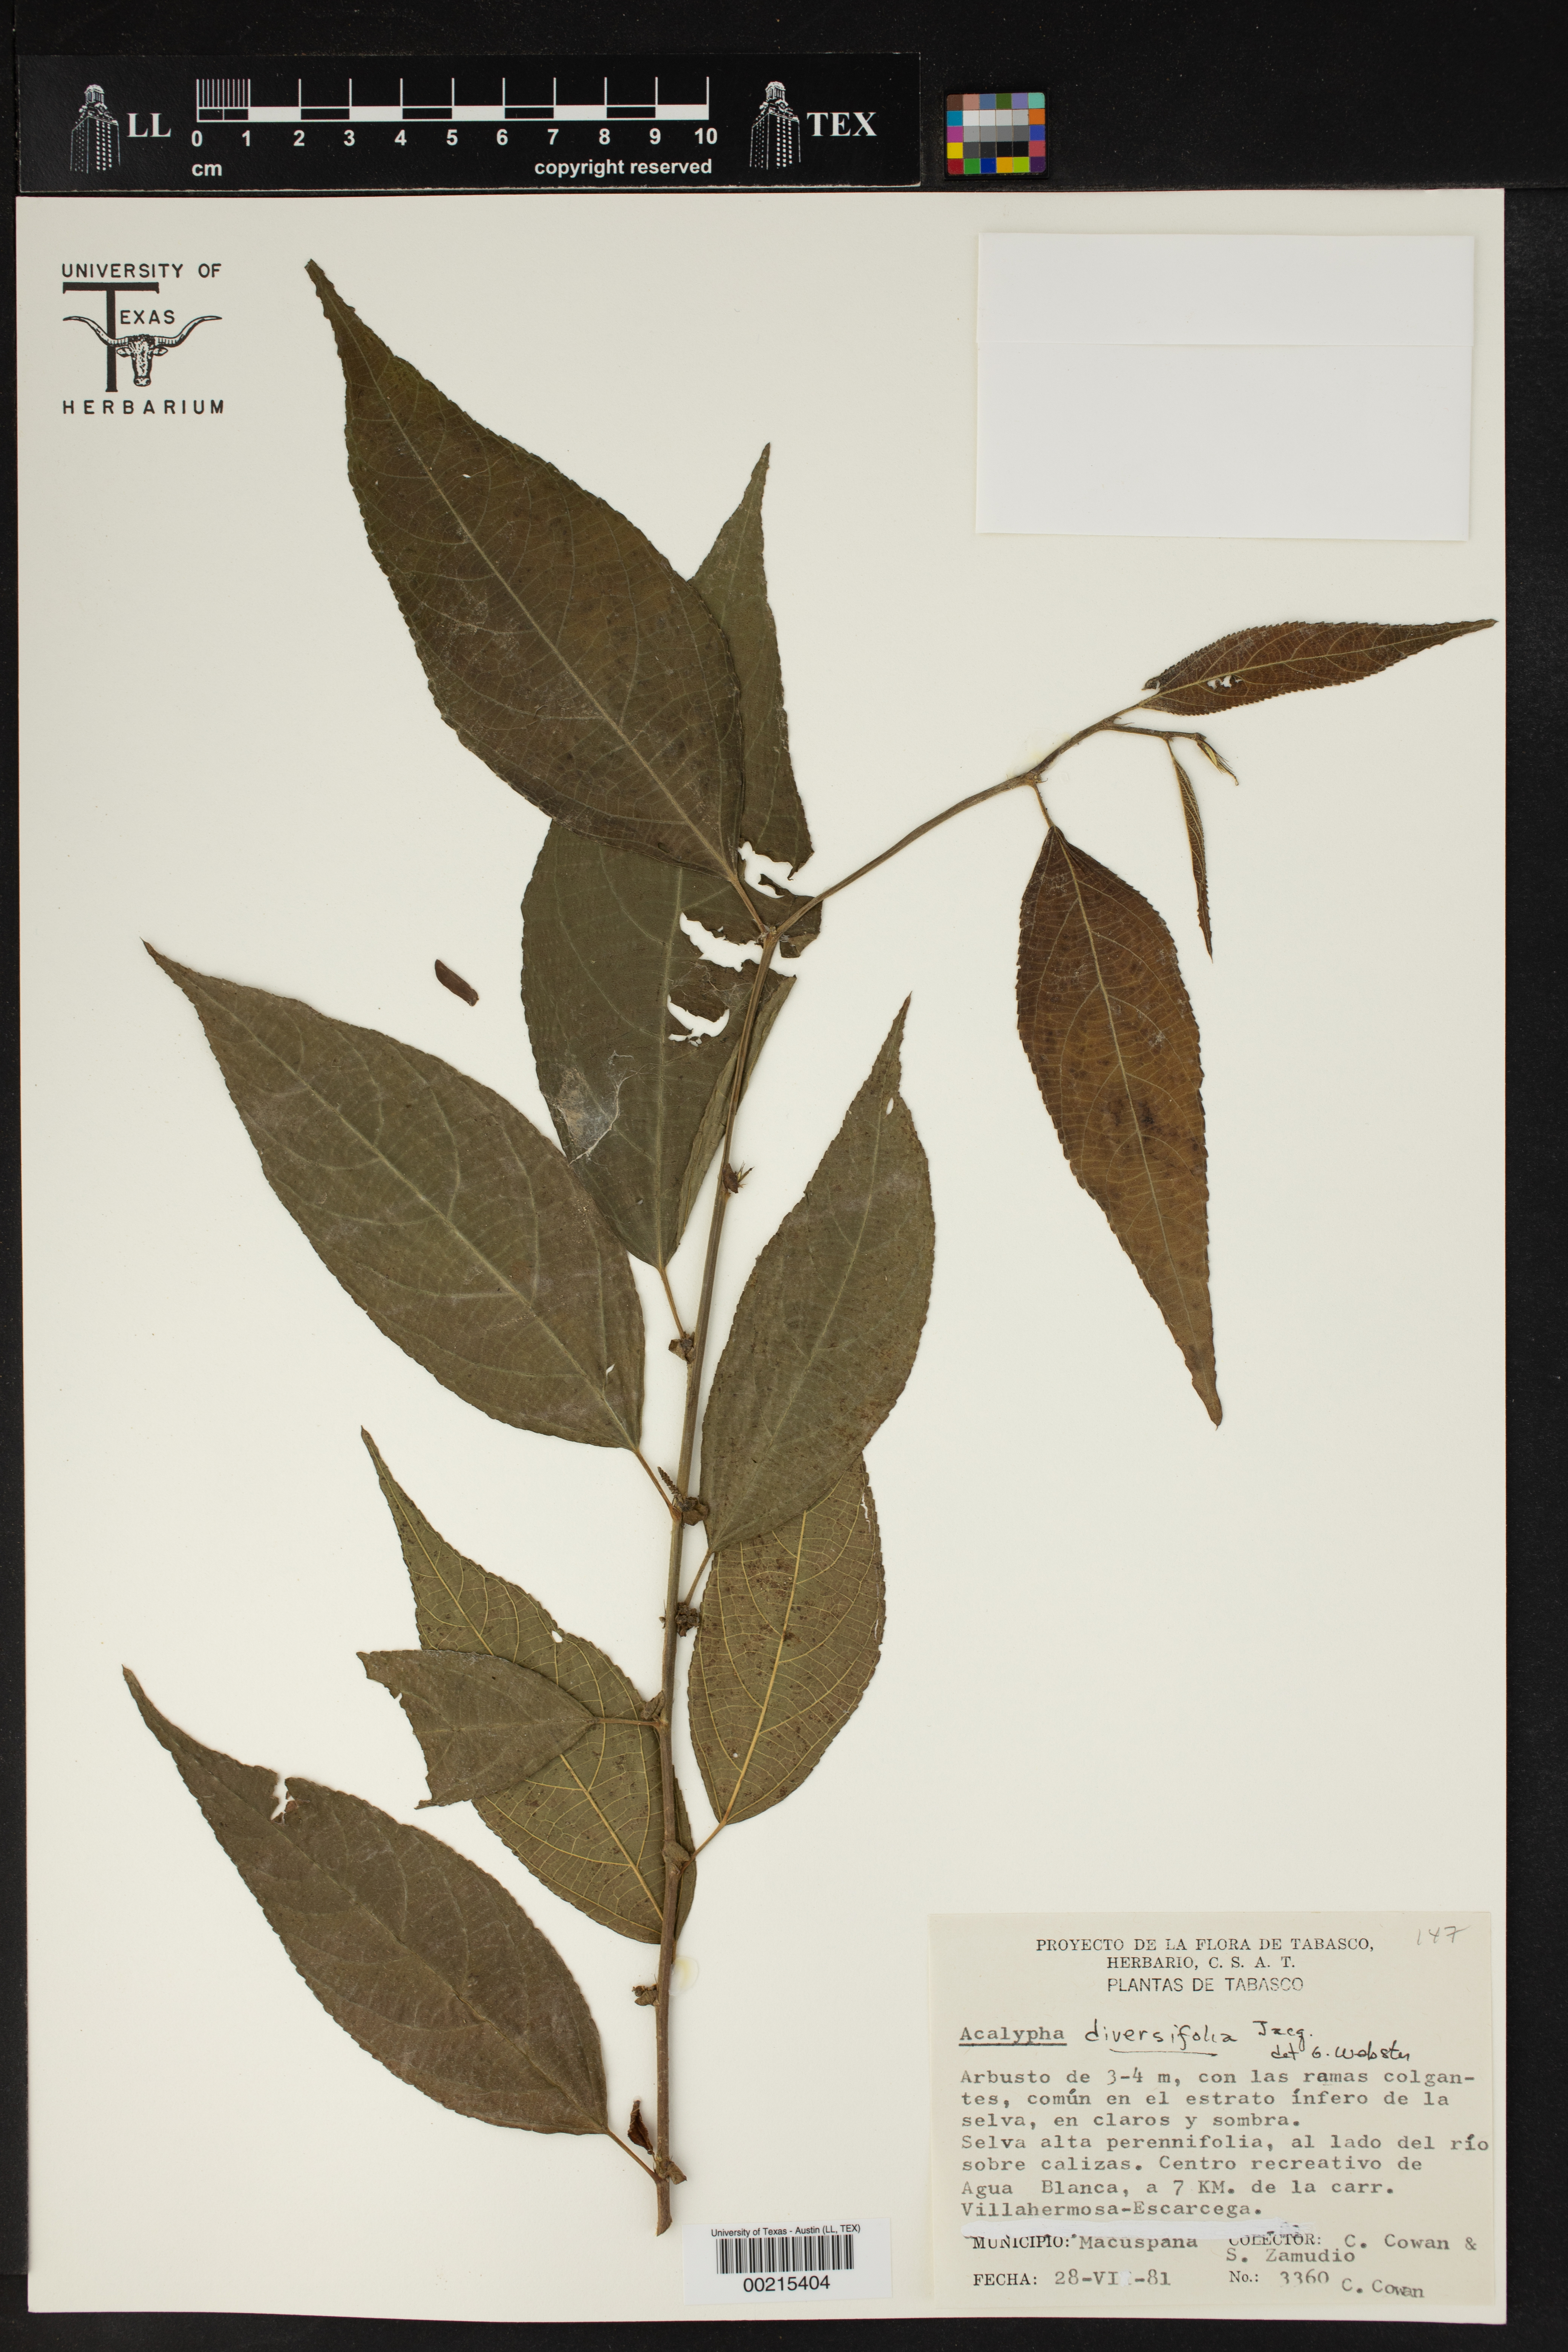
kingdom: Plantae
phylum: Tracheophyta
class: Magnoliopsida
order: Malpighiales
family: Euphorbiaceae
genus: Acalypha
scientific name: Acalypha diversifolia
